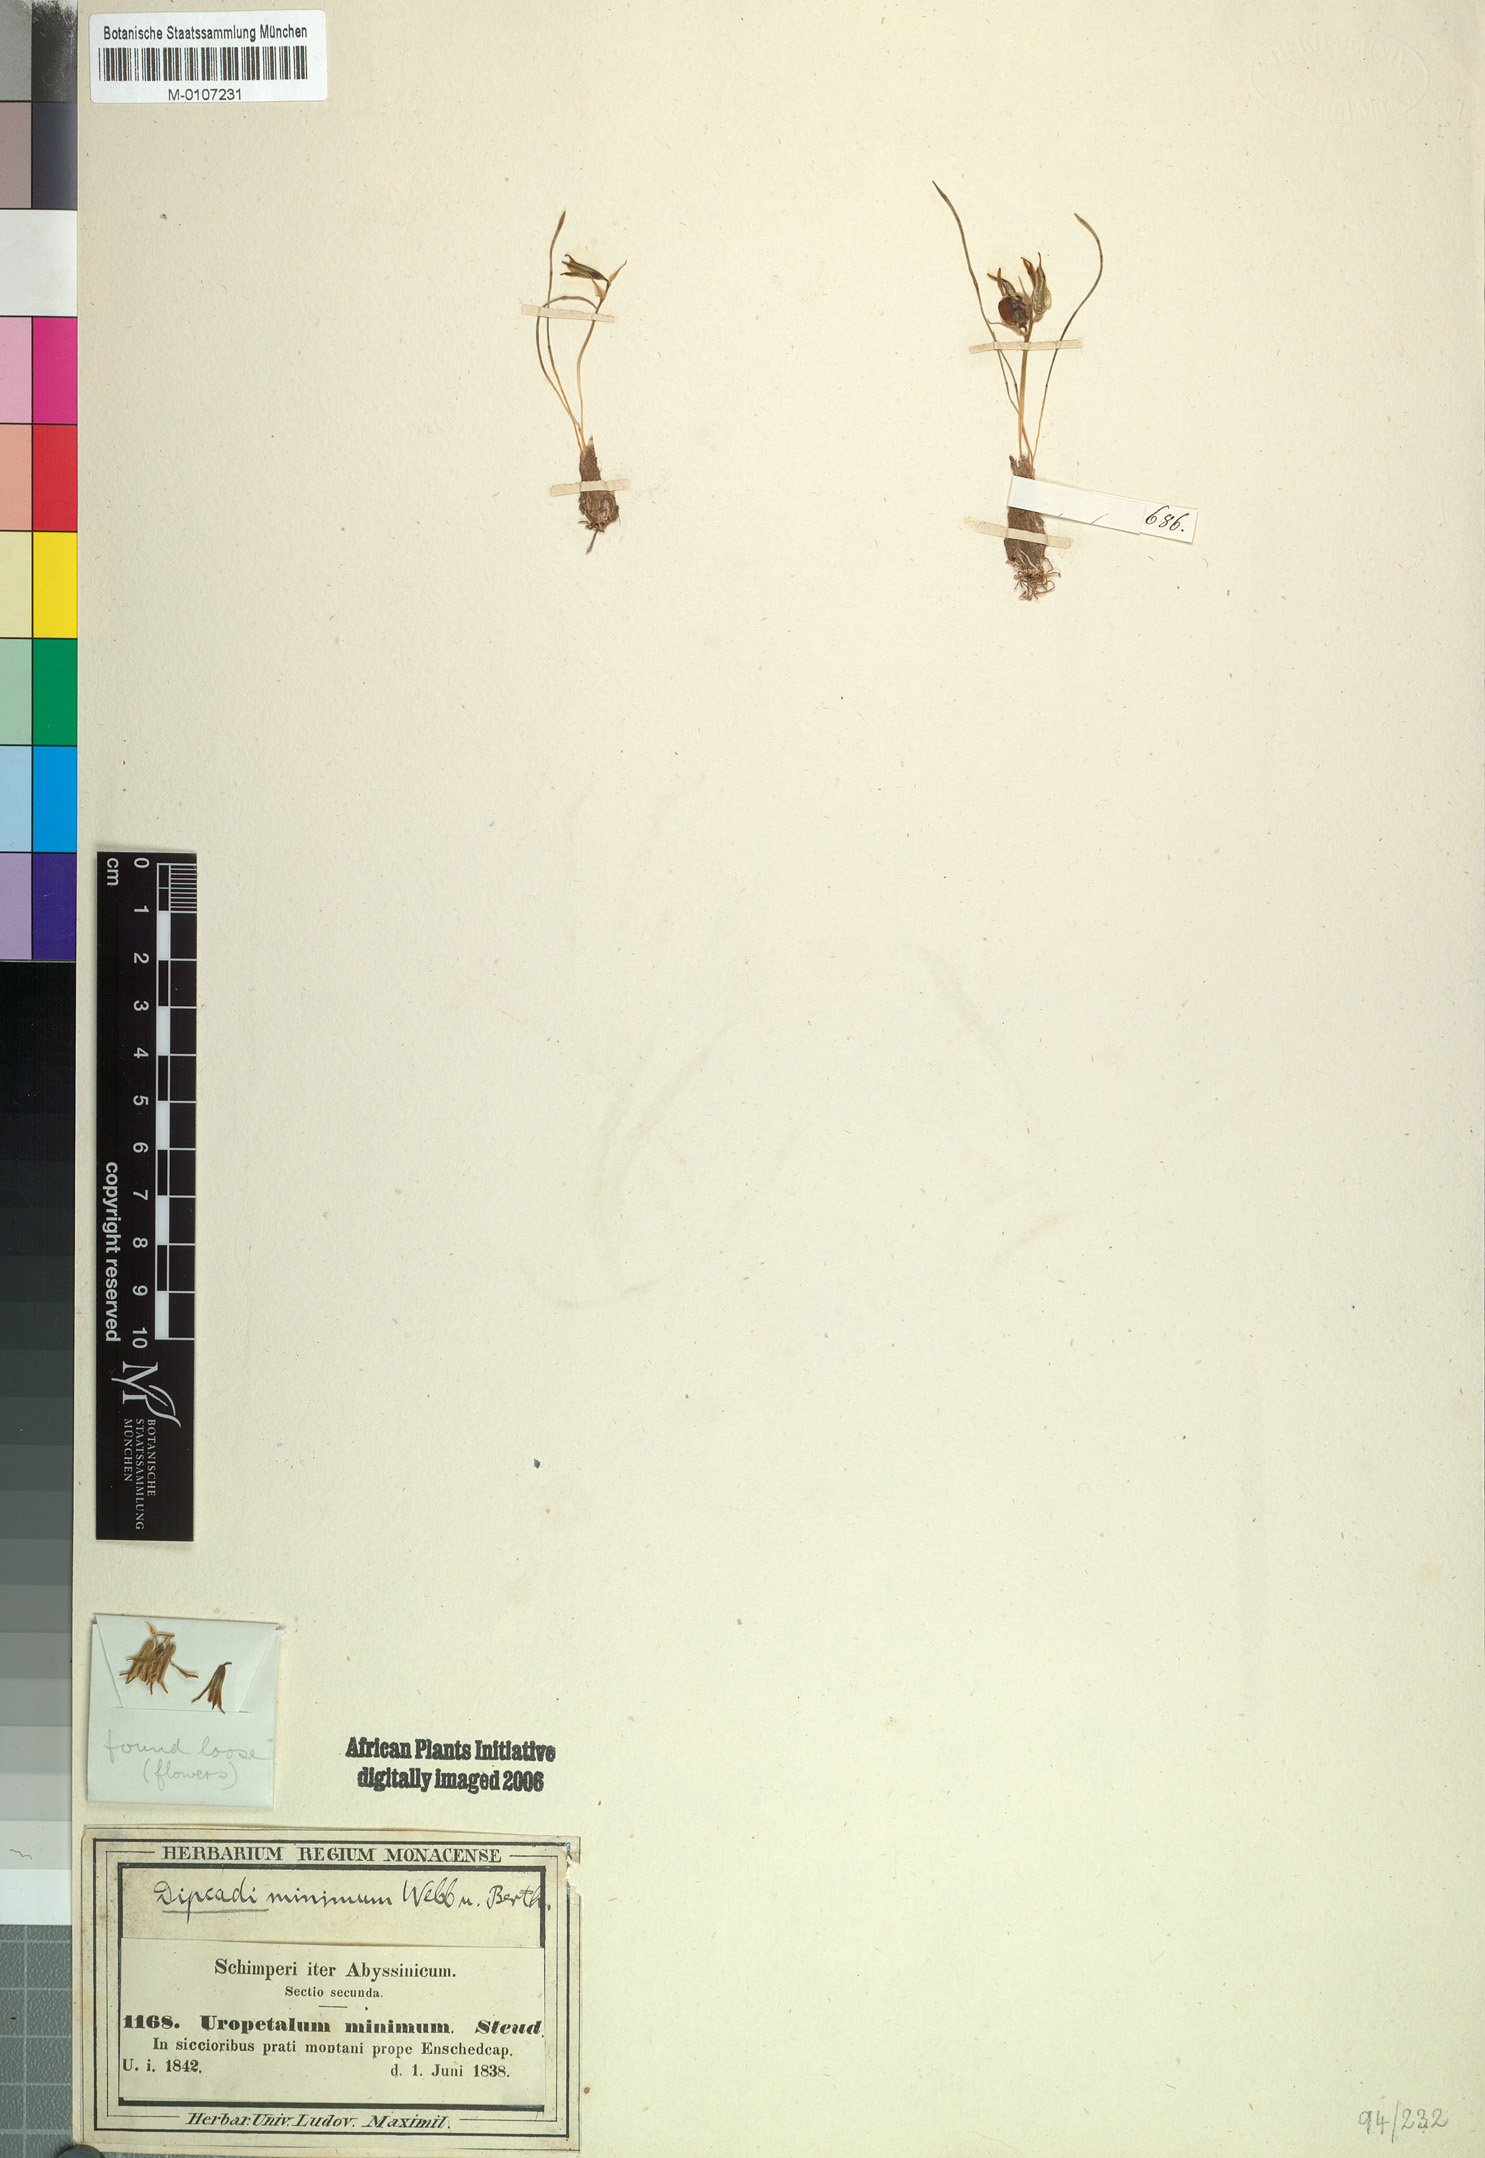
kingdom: Plantae
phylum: Tracheophyta
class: Liliopsida
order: Asparagales
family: Asparagaceae
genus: Dipcadi
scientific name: Dipcadi minimum
